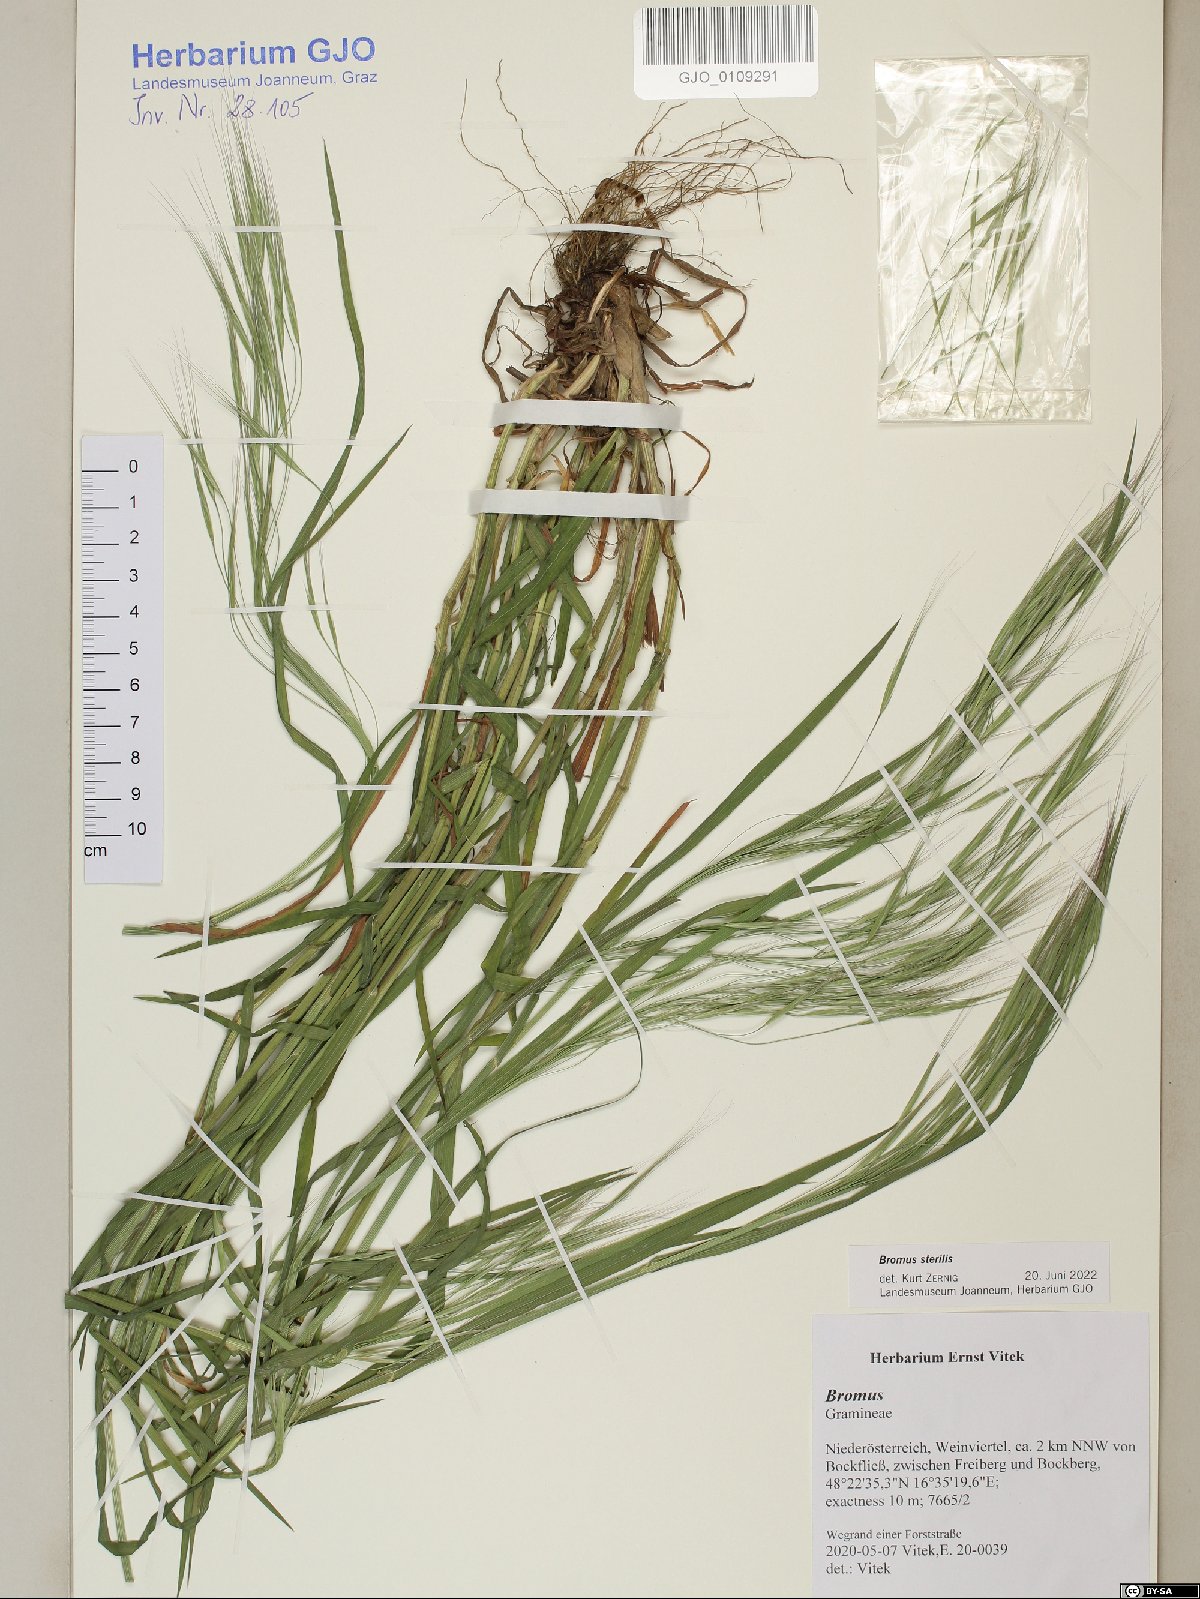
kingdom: Plantae
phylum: Tracheophyta
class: Liliopsida
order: Poales
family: Poaceae
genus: Bromus
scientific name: Bromus sterilis
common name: Poverty brome
